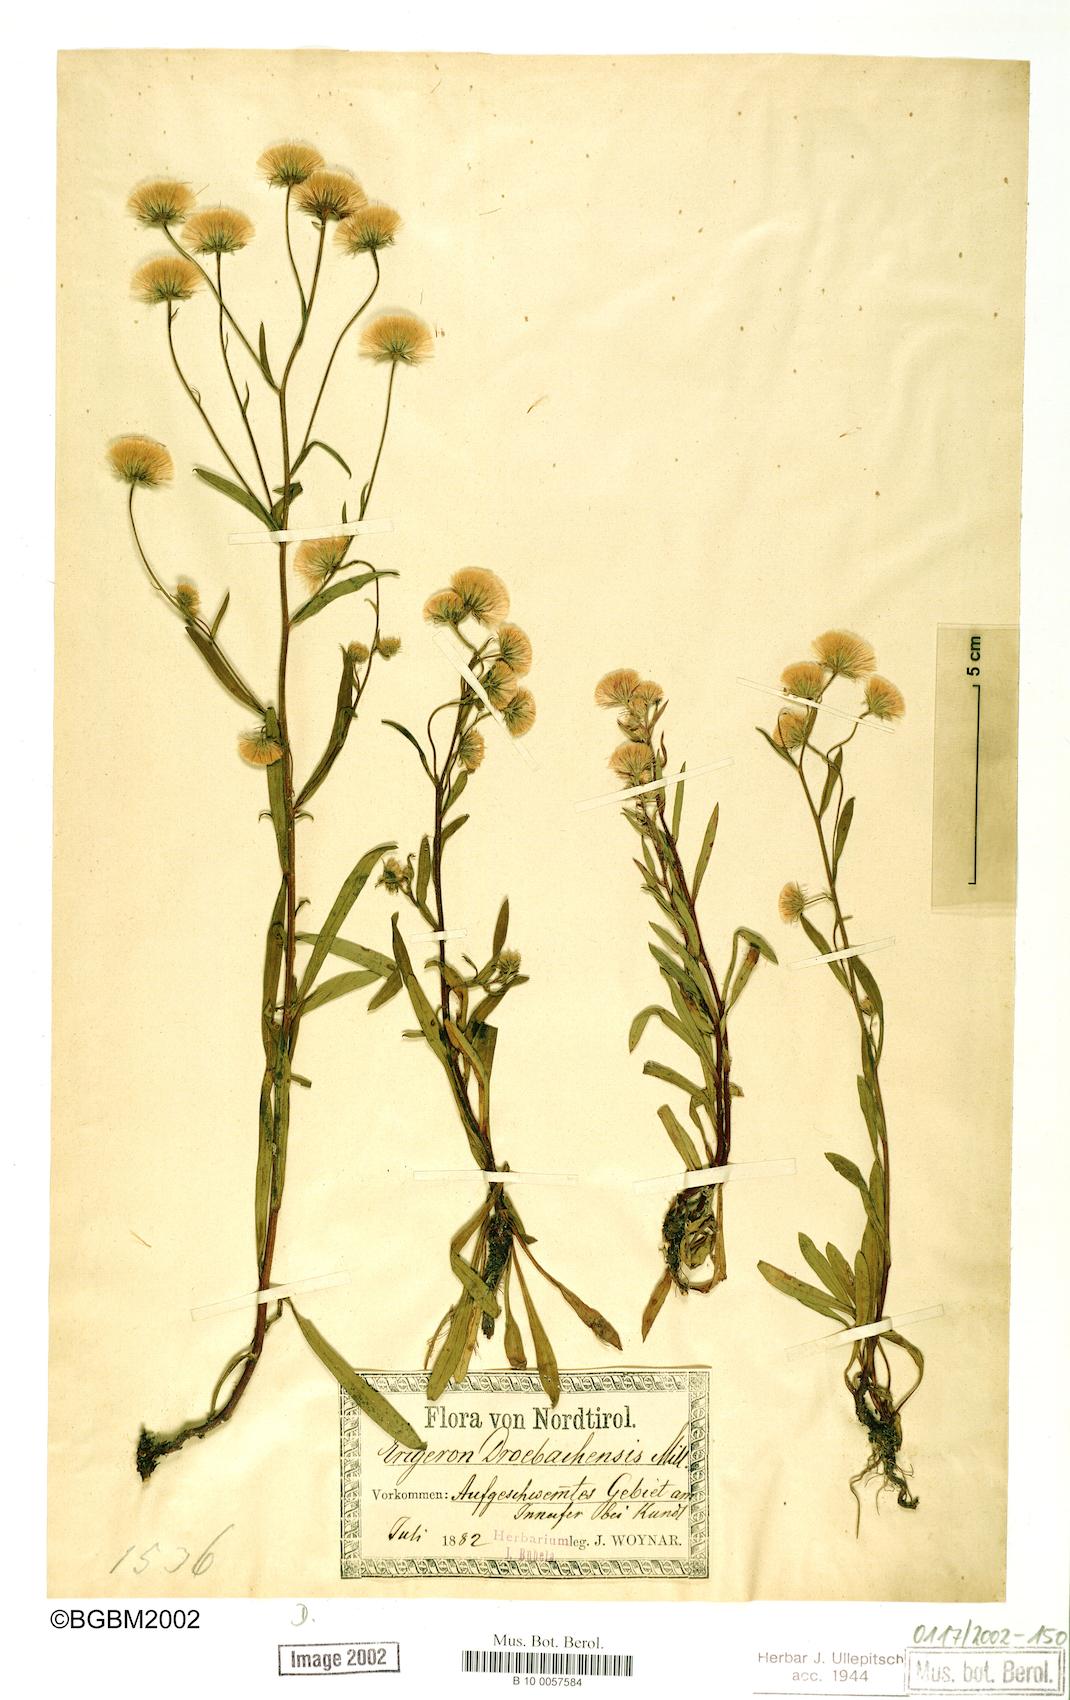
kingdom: Plantae
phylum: Tracheophyta
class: Magnoliopsida
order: Asterales
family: Asteraceae
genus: Erigeron
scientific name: Erigeron acris
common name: Blue fleabane
